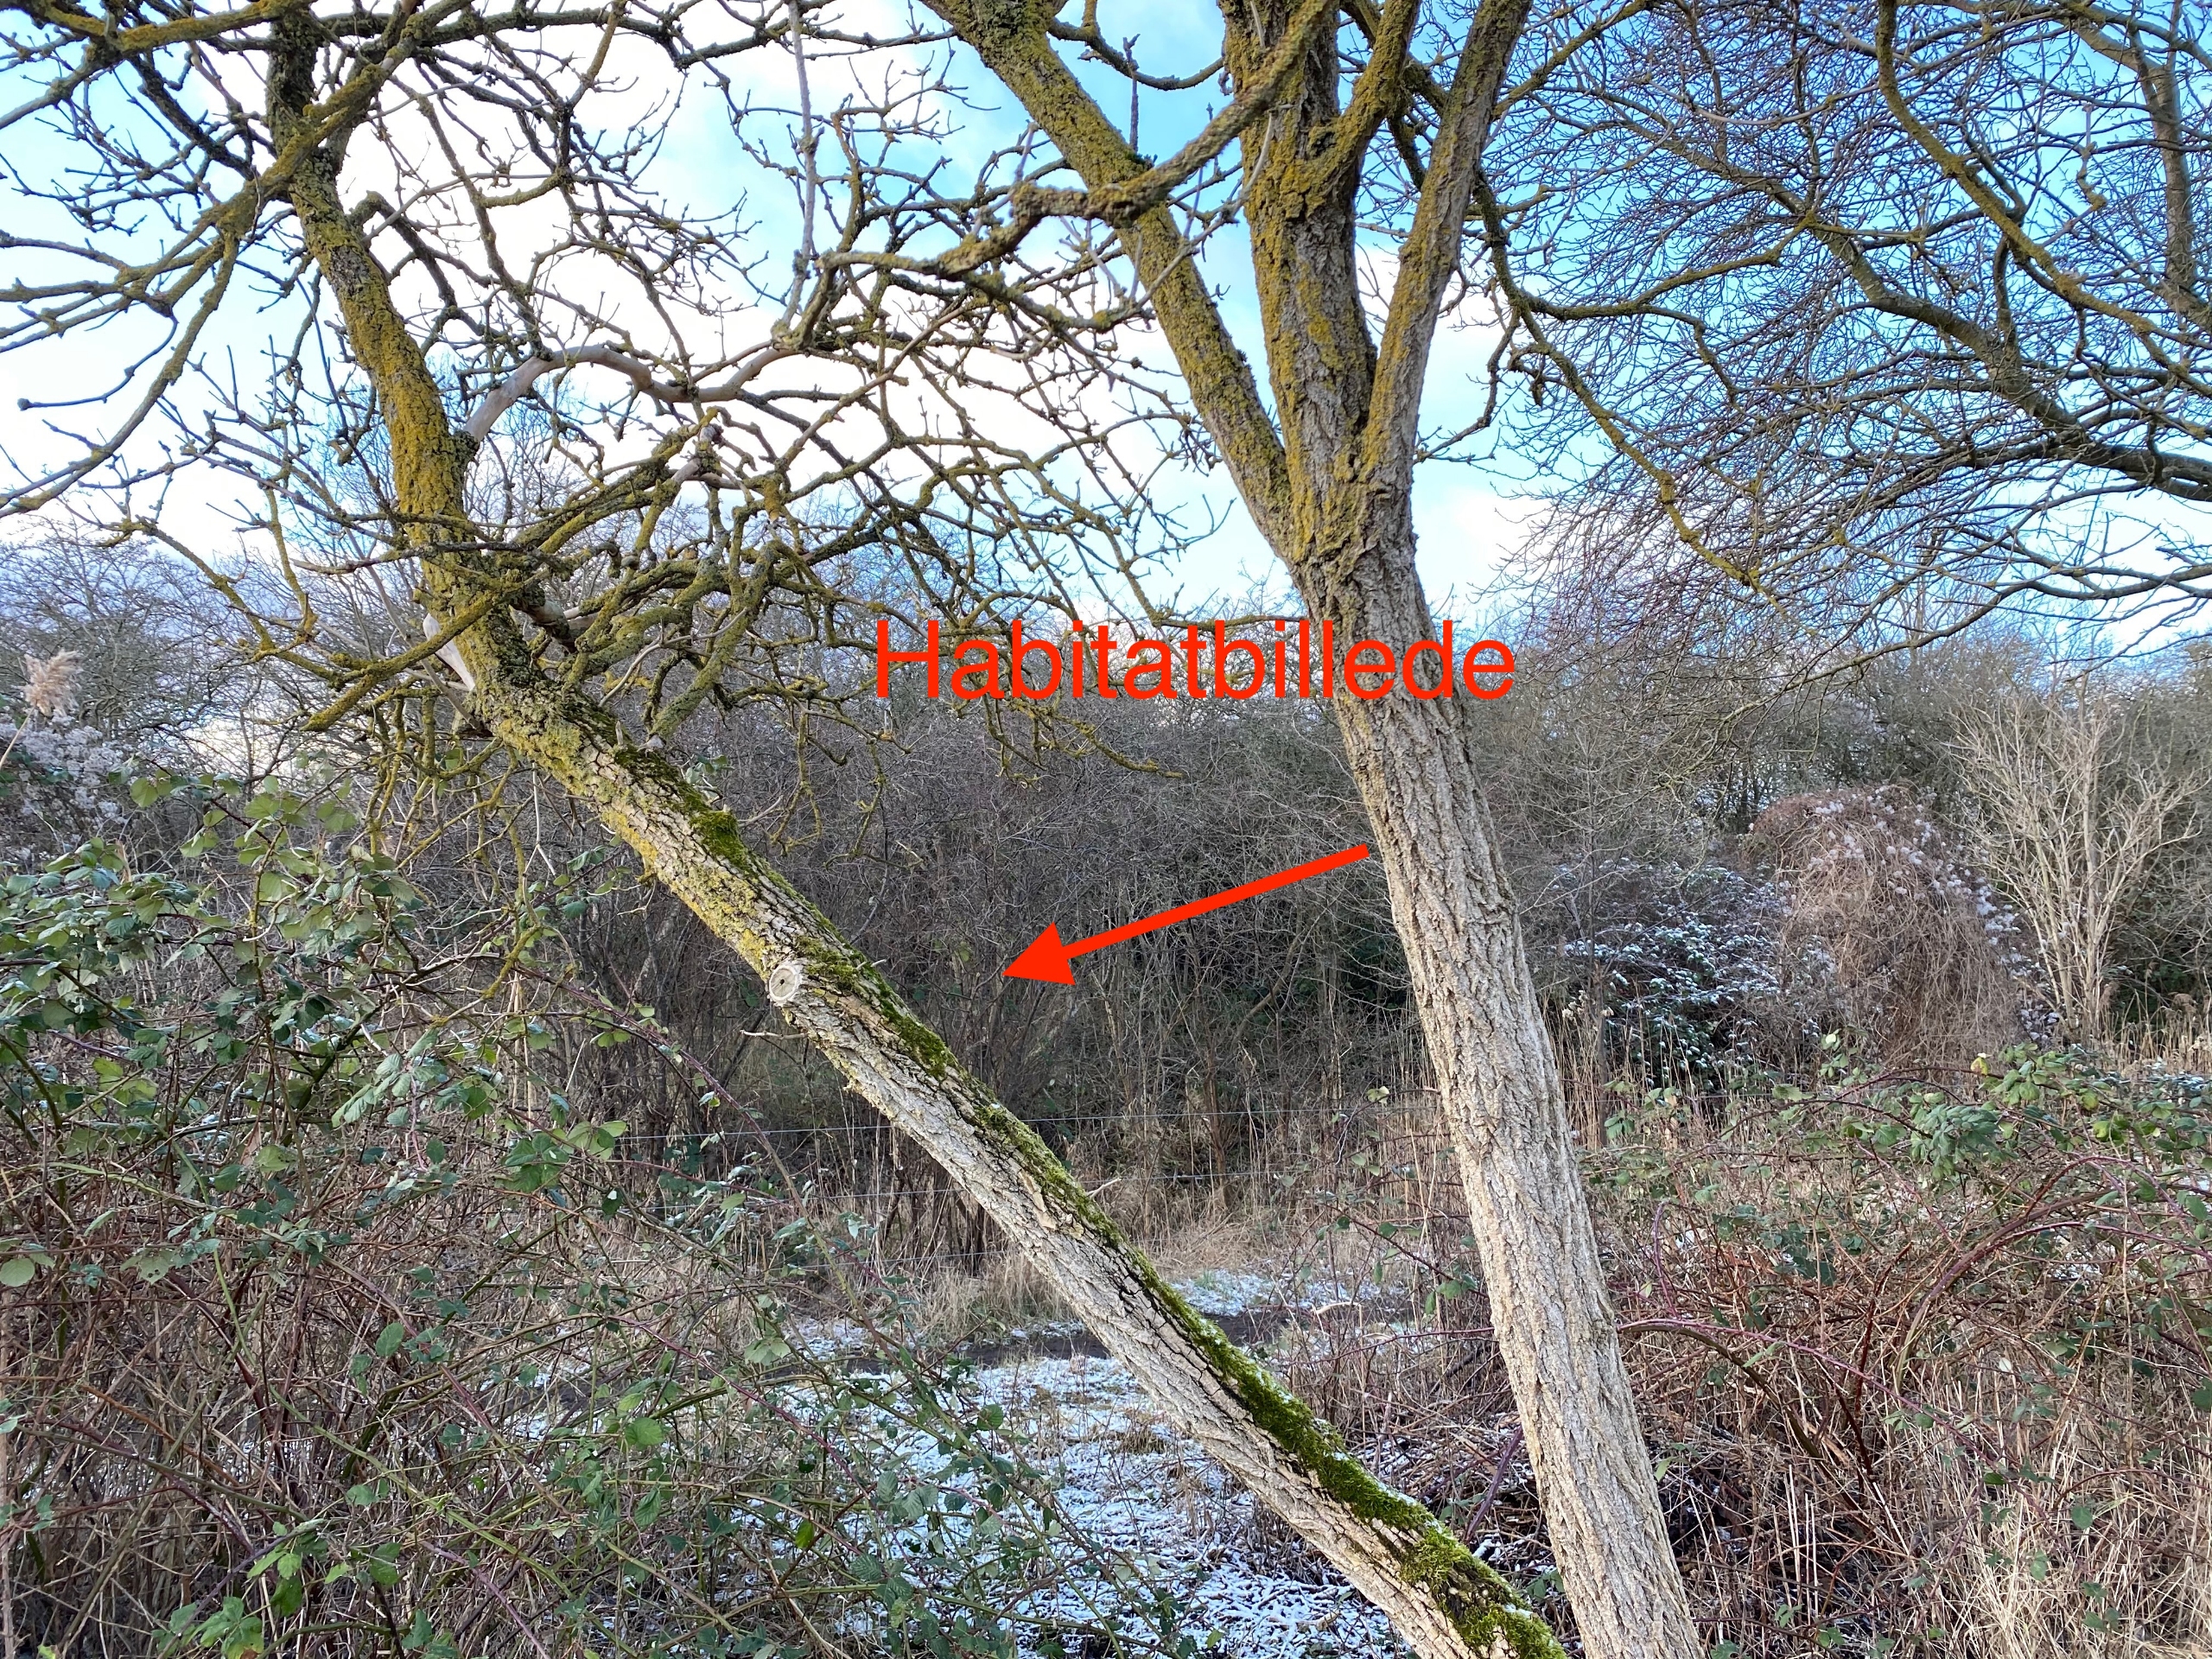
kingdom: Plantae
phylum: Bryophyta
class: Bryopsida
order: Orthotrichales
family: Orthotrichaceae
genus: Nyholmiella
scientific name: Nyholmiella obtusifolia
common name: Butbladet furehætte
